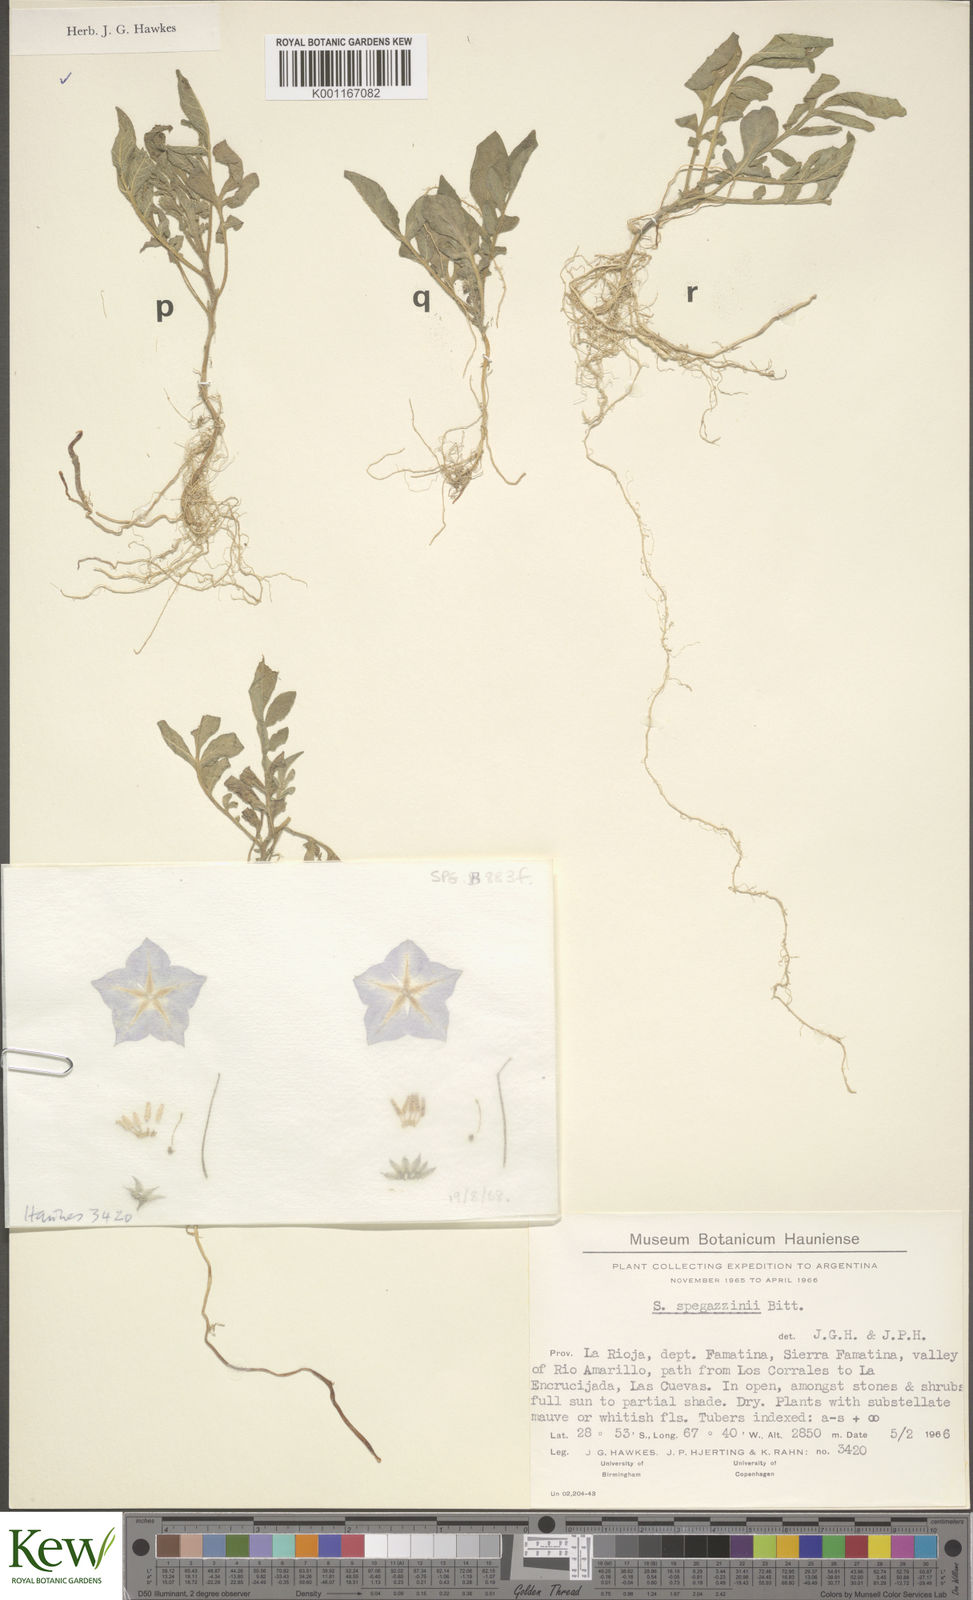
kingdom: Plantae
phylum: Tracheophyta
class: Magnoliopsida
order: Solanales
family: Solanaceae
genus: Solanum
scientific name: Solanum brevicaule
